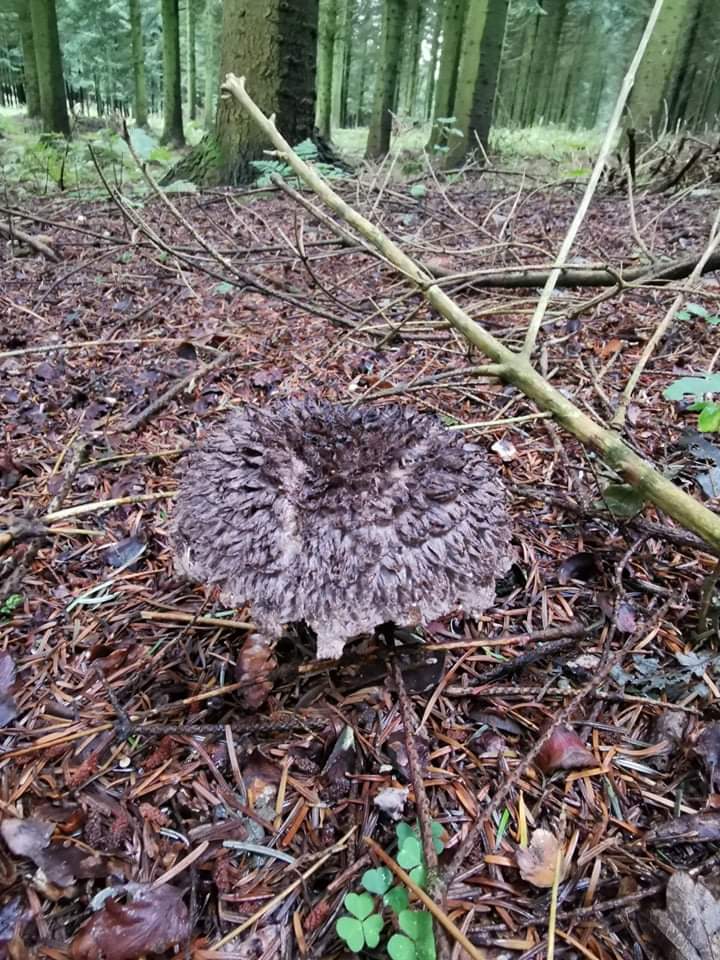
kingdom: Fungi
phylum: Basidiomycota
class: Agaricomycetes
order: Boletales
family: Boletaceae
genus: Strobilomyces
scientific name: Strobilomyces strobilaceus
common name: koglerørhat
